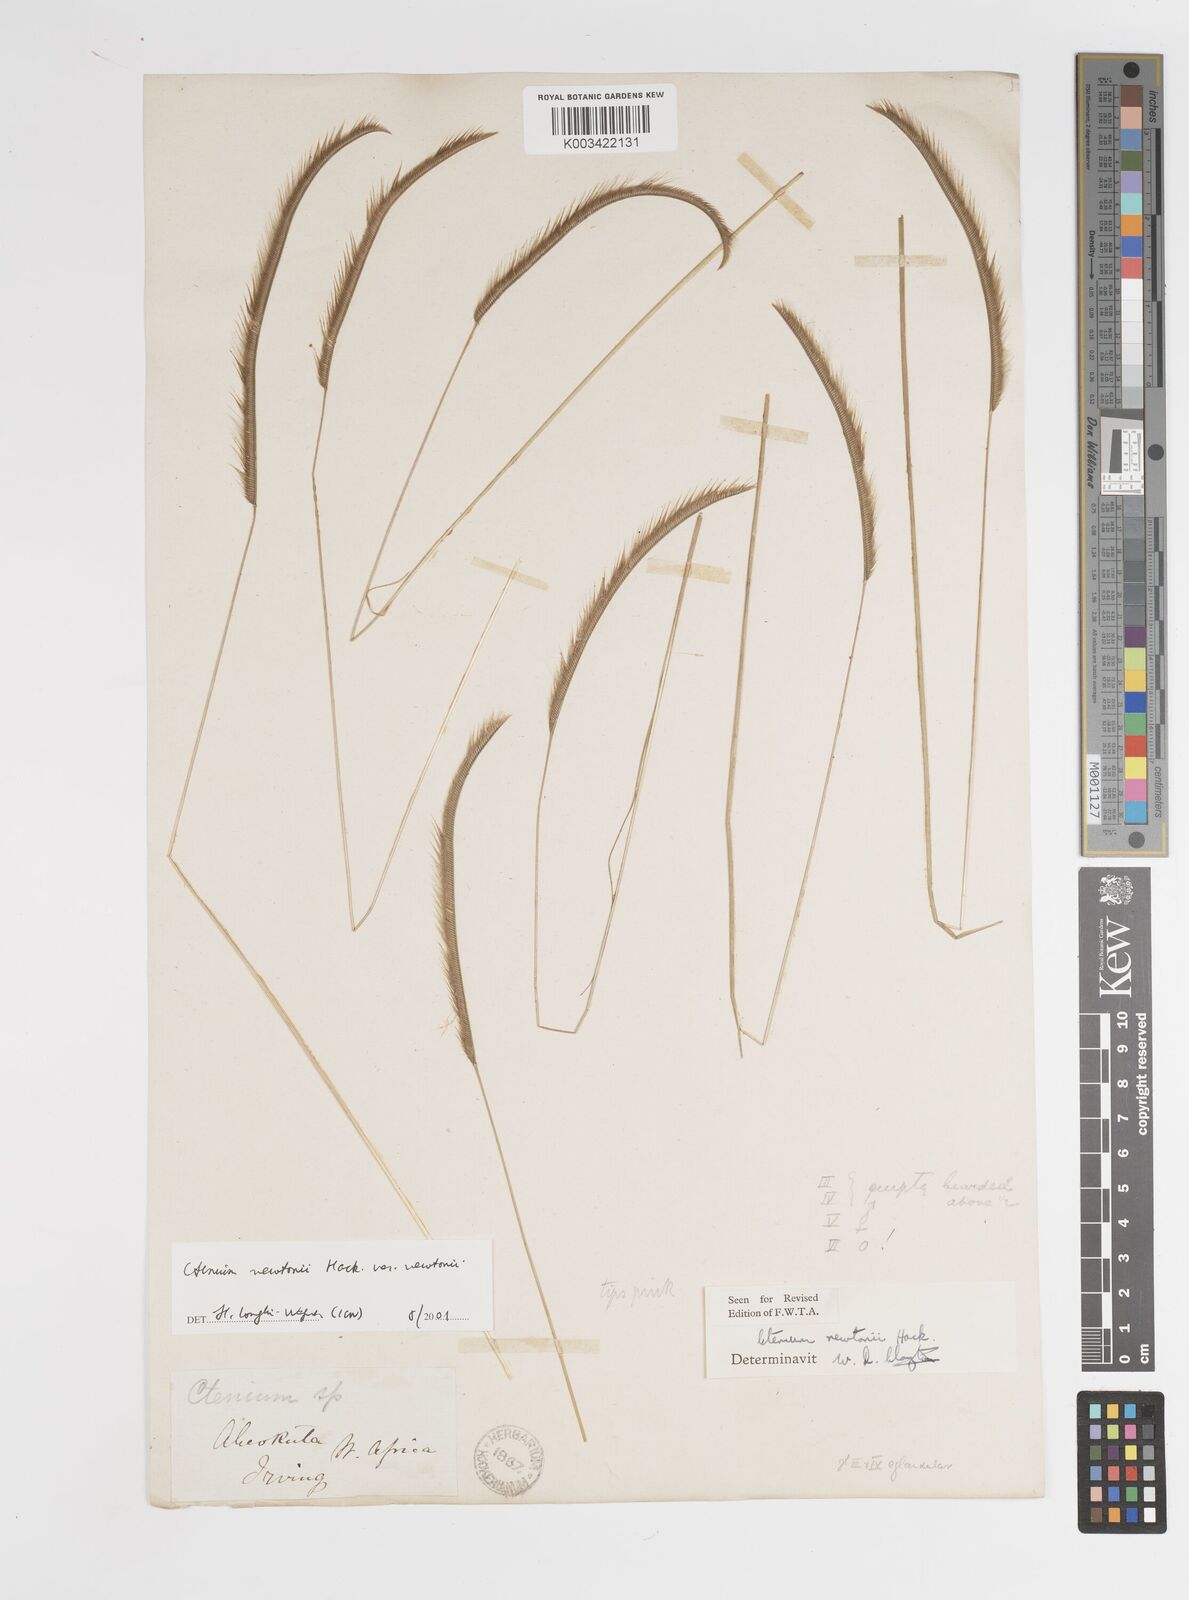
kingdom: Plantae
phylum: Tracheophyta
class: Liliopsida
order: Poales
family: Poaceae
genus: Ctenium
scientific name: Ctenium newtonii
